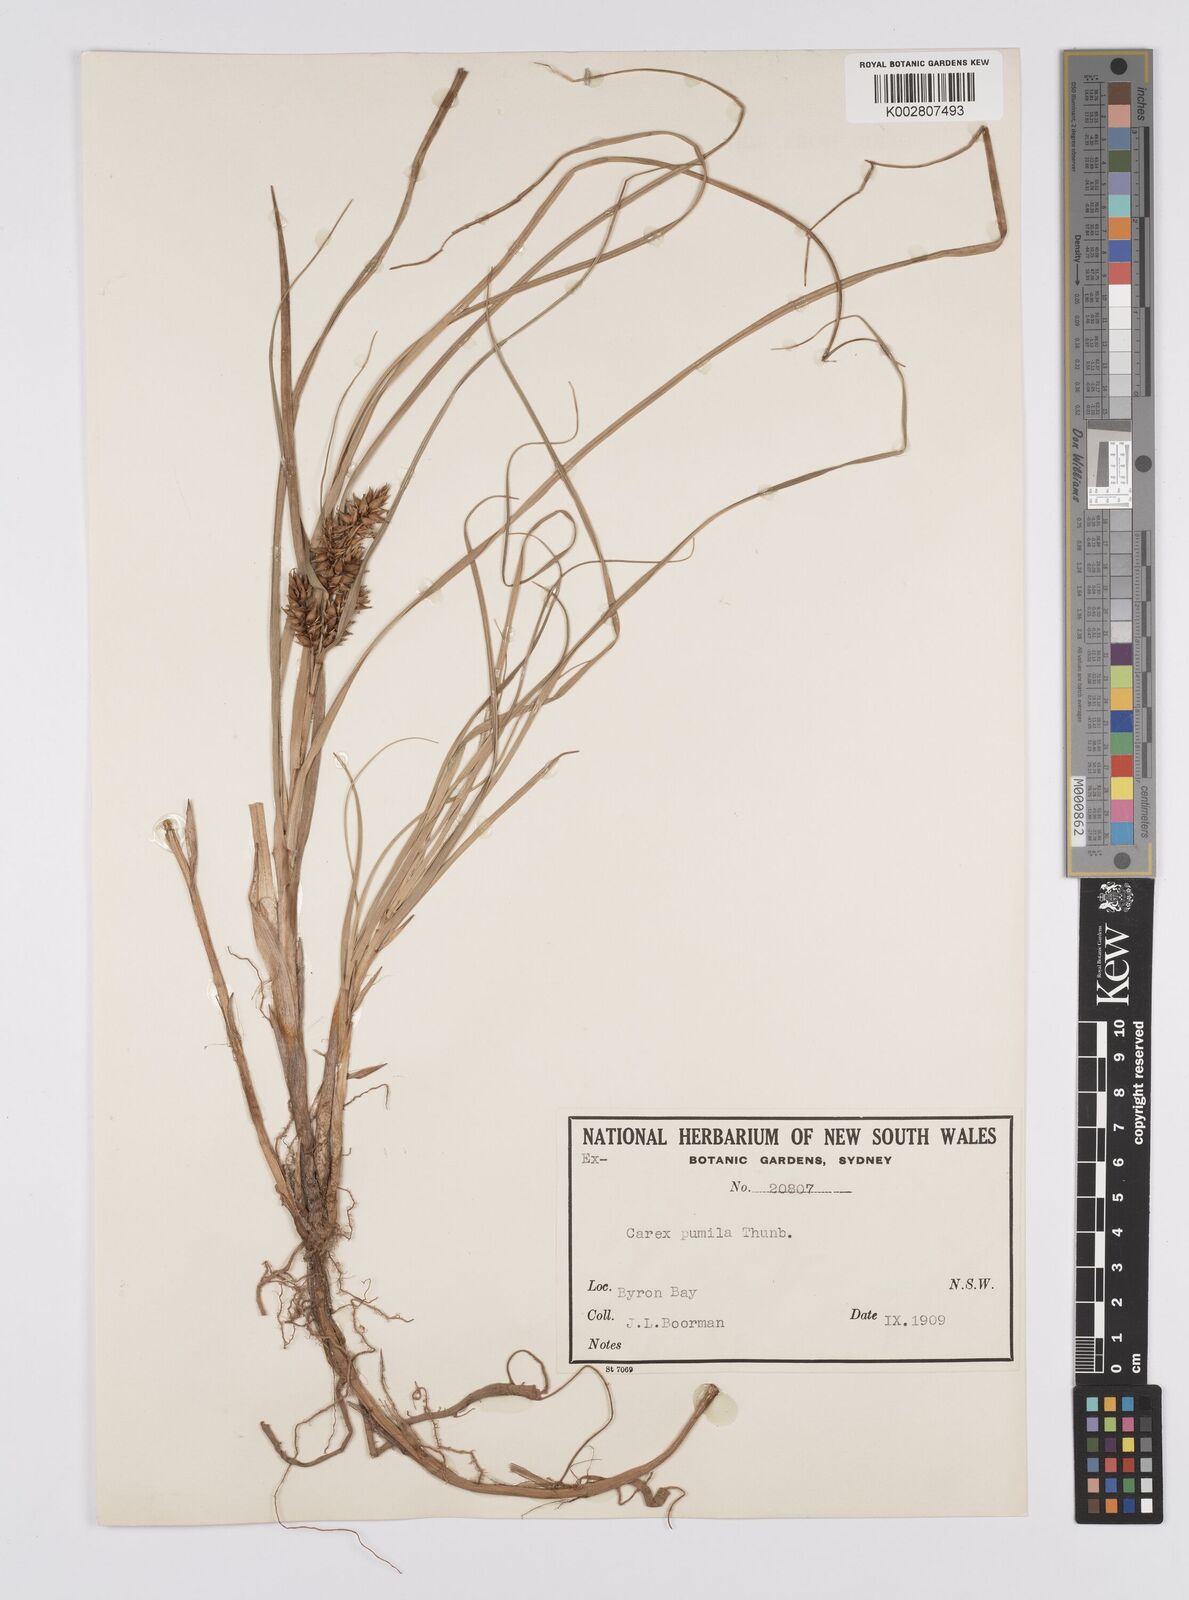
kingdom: Plantae
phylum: Tracheophyta
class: Liliopsida
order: Poales
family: Cyperaceae
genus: Carex
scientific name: Carex pumila
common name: Dwarf sedge
